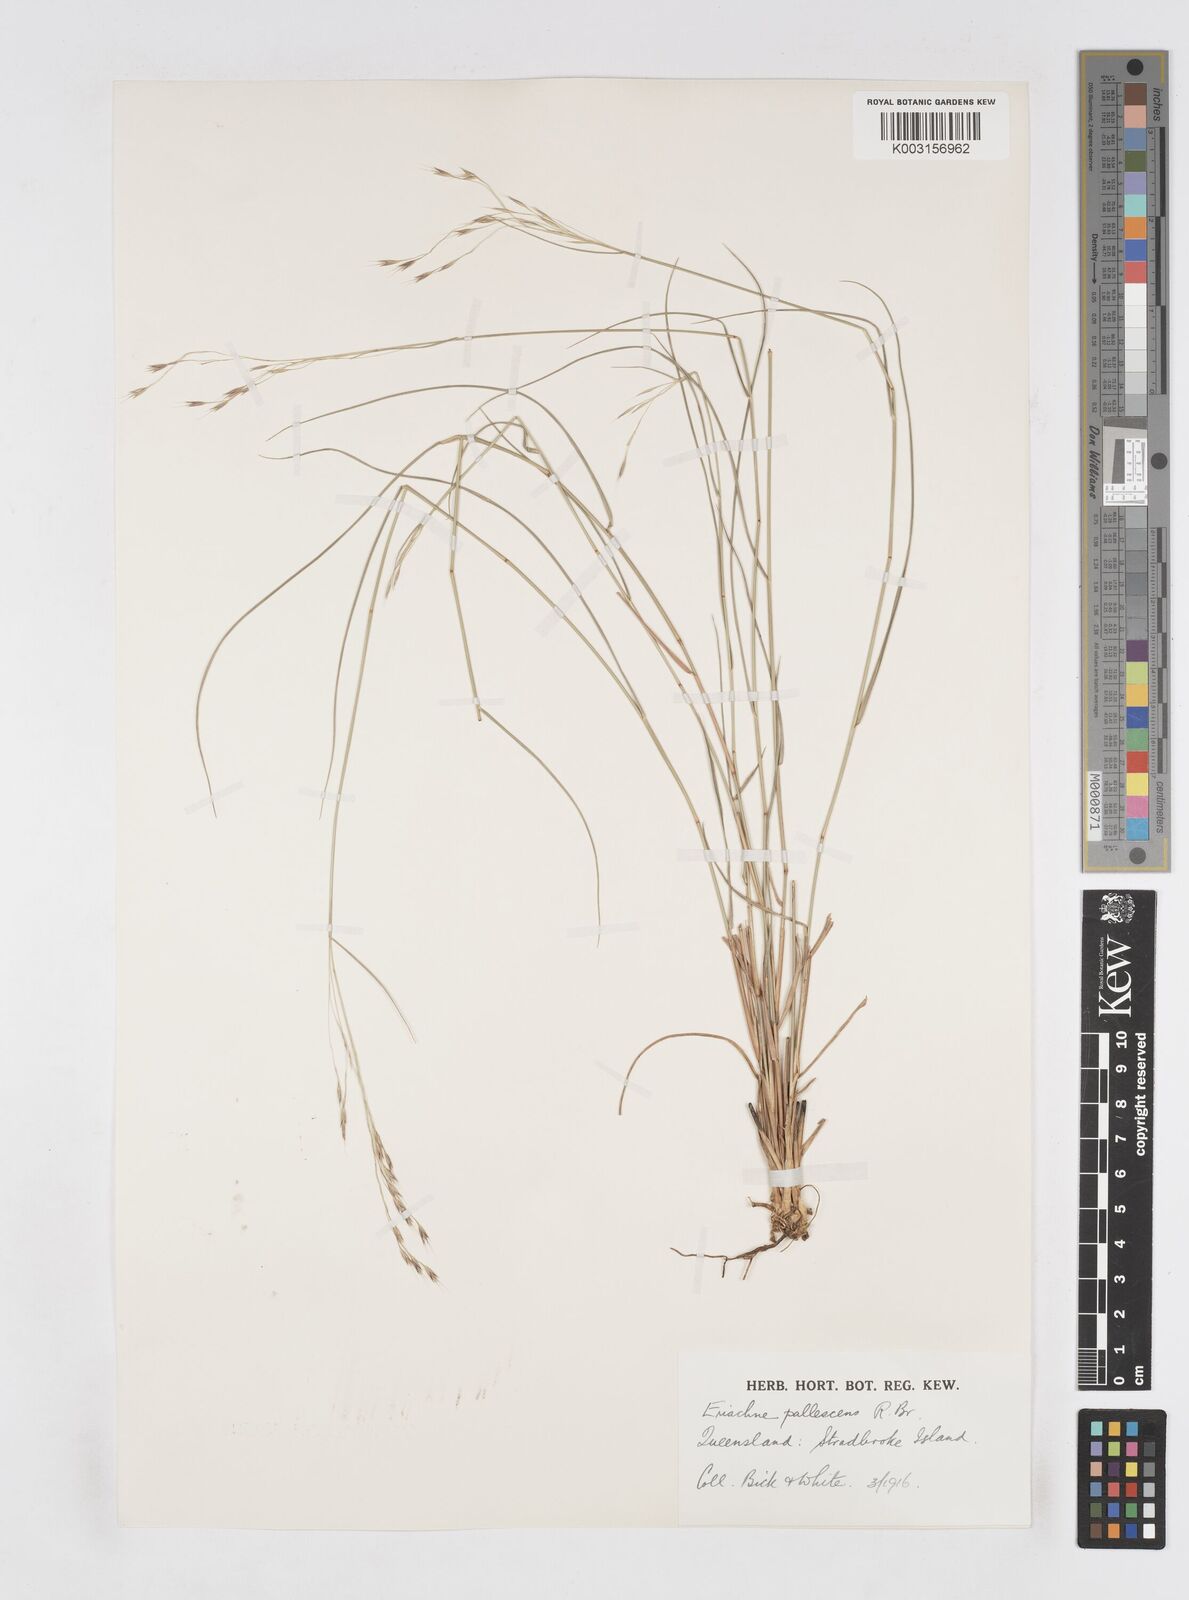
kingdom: Plantae
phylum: Tracheophyta
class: Liliopsida
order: Poales
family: Poaceae
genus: Eriachne
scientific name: Eriachne pallescens
